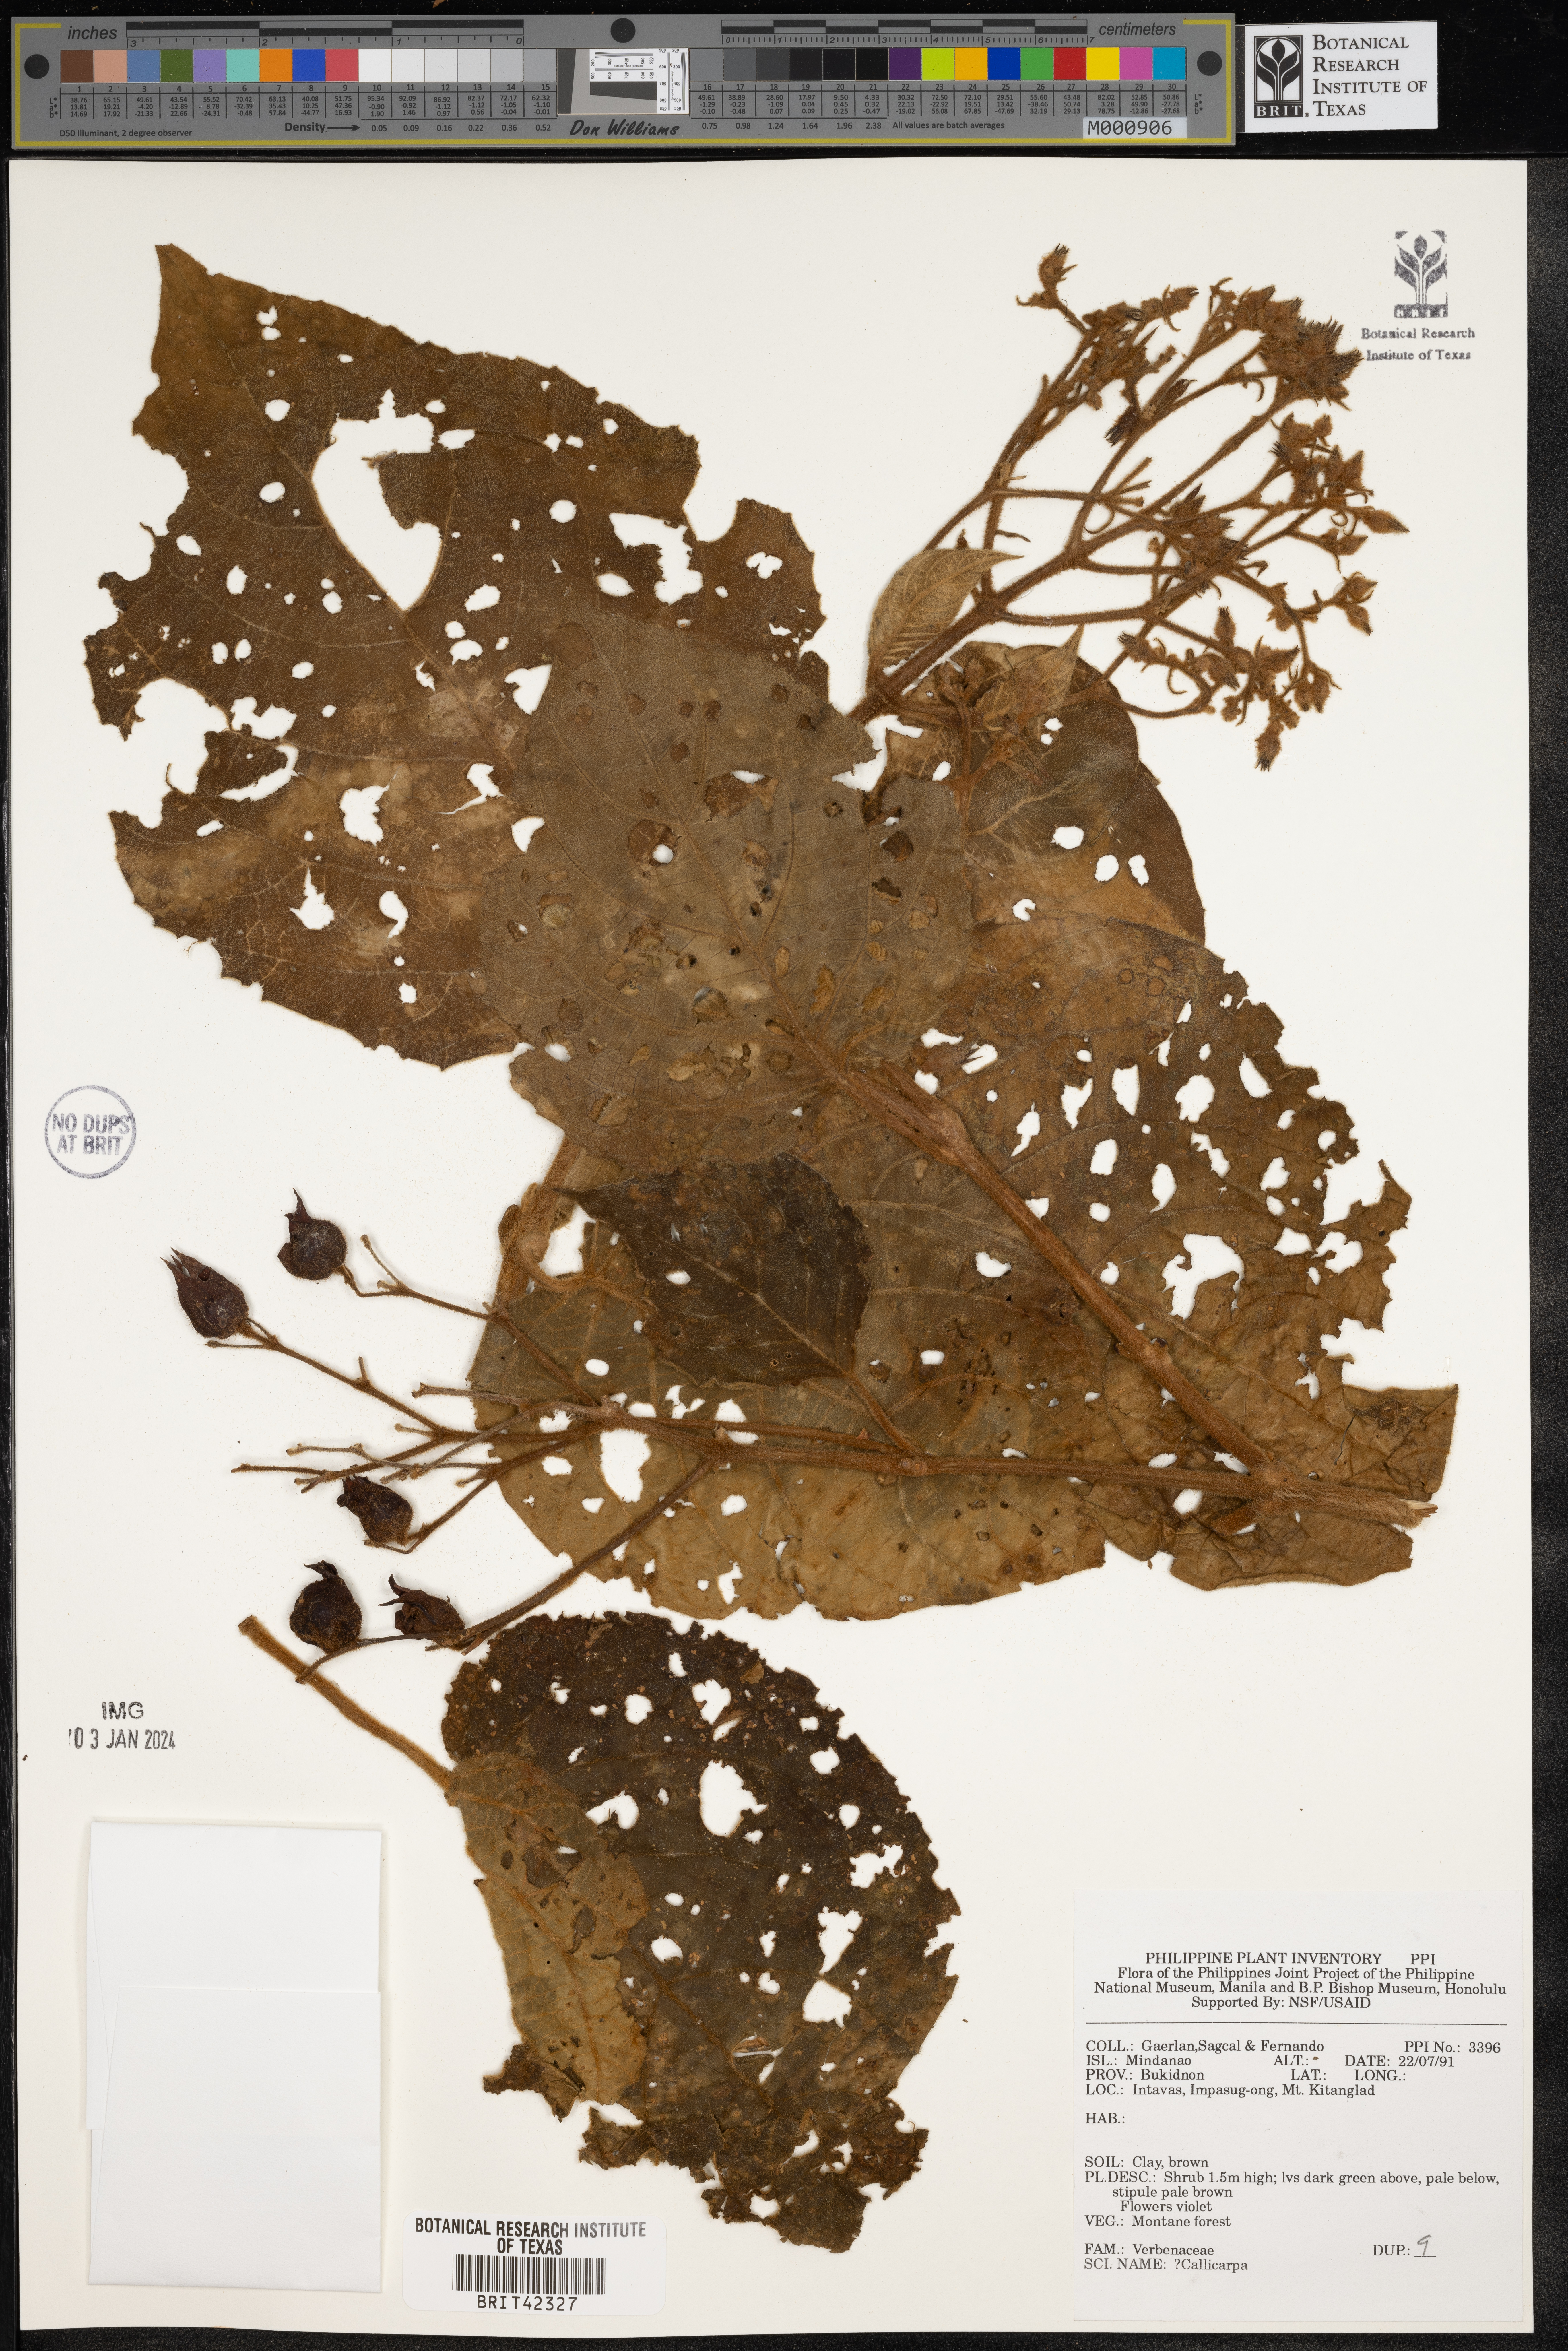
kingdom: Plantae
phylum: Tracheophyta
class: Magnoliopsida
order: Lamiales
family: Lamiaceae
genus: Callicarpa
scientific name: Callicarpa
